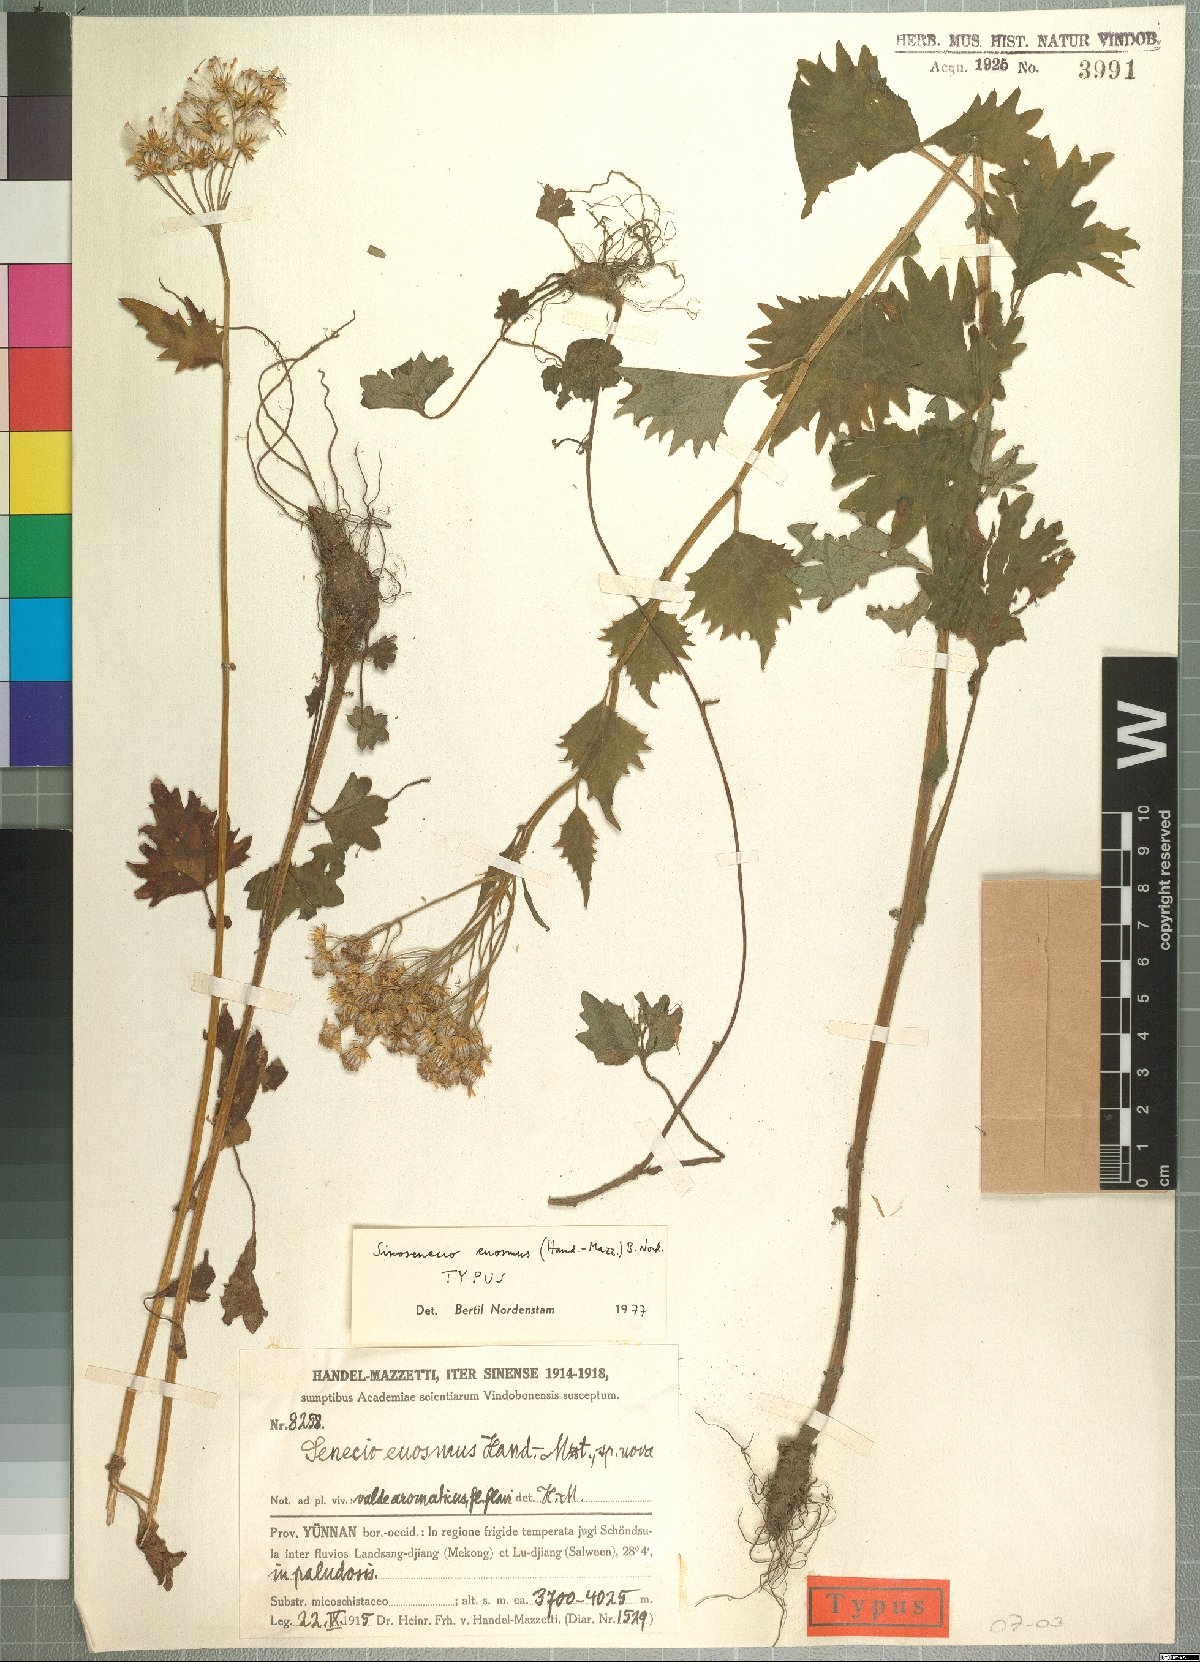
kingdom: Plantae
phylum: Tracheophyta
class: Magnoliopsida
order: Asterales
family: Asteraceae
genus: Sinosenecio
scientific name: Sinosenecio euosmus
